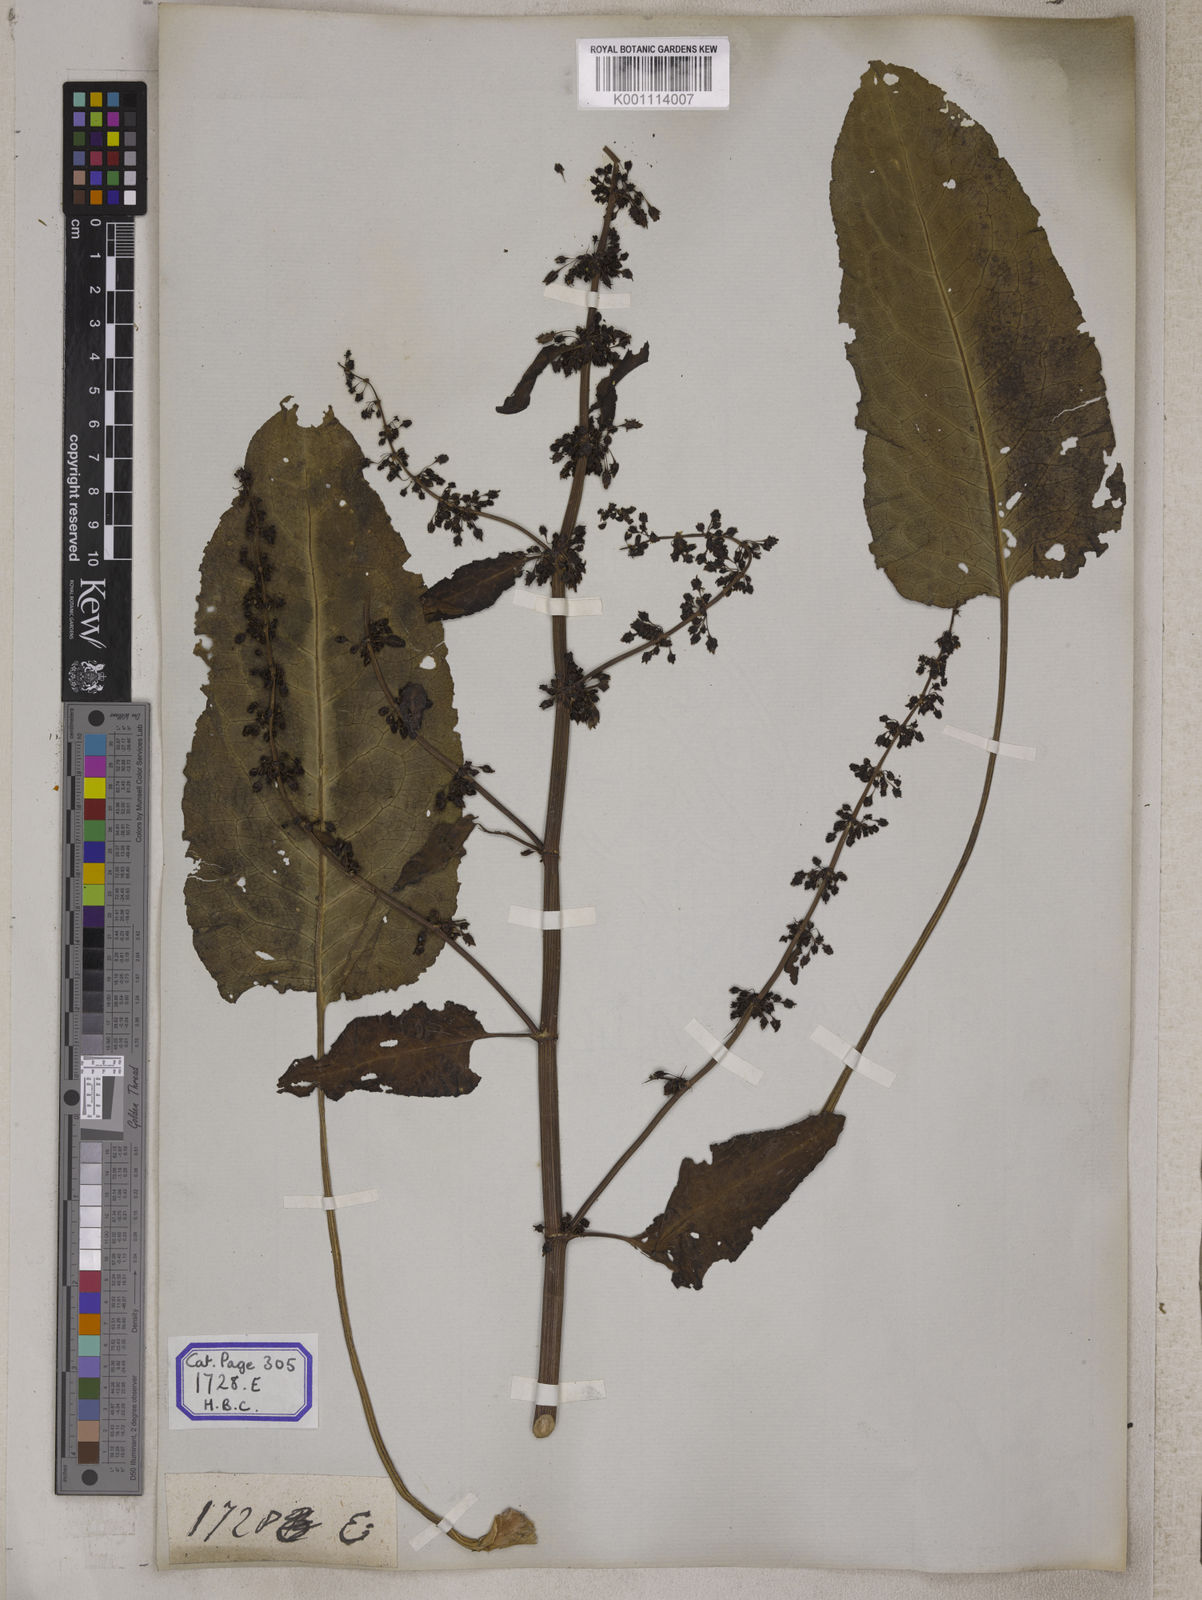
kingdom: Plantae
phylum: Tracheophyta
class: Magnoliopsida
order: Caryophyllales
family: Polygonaceae
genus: Rumex
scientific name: Rumex nepalensis
